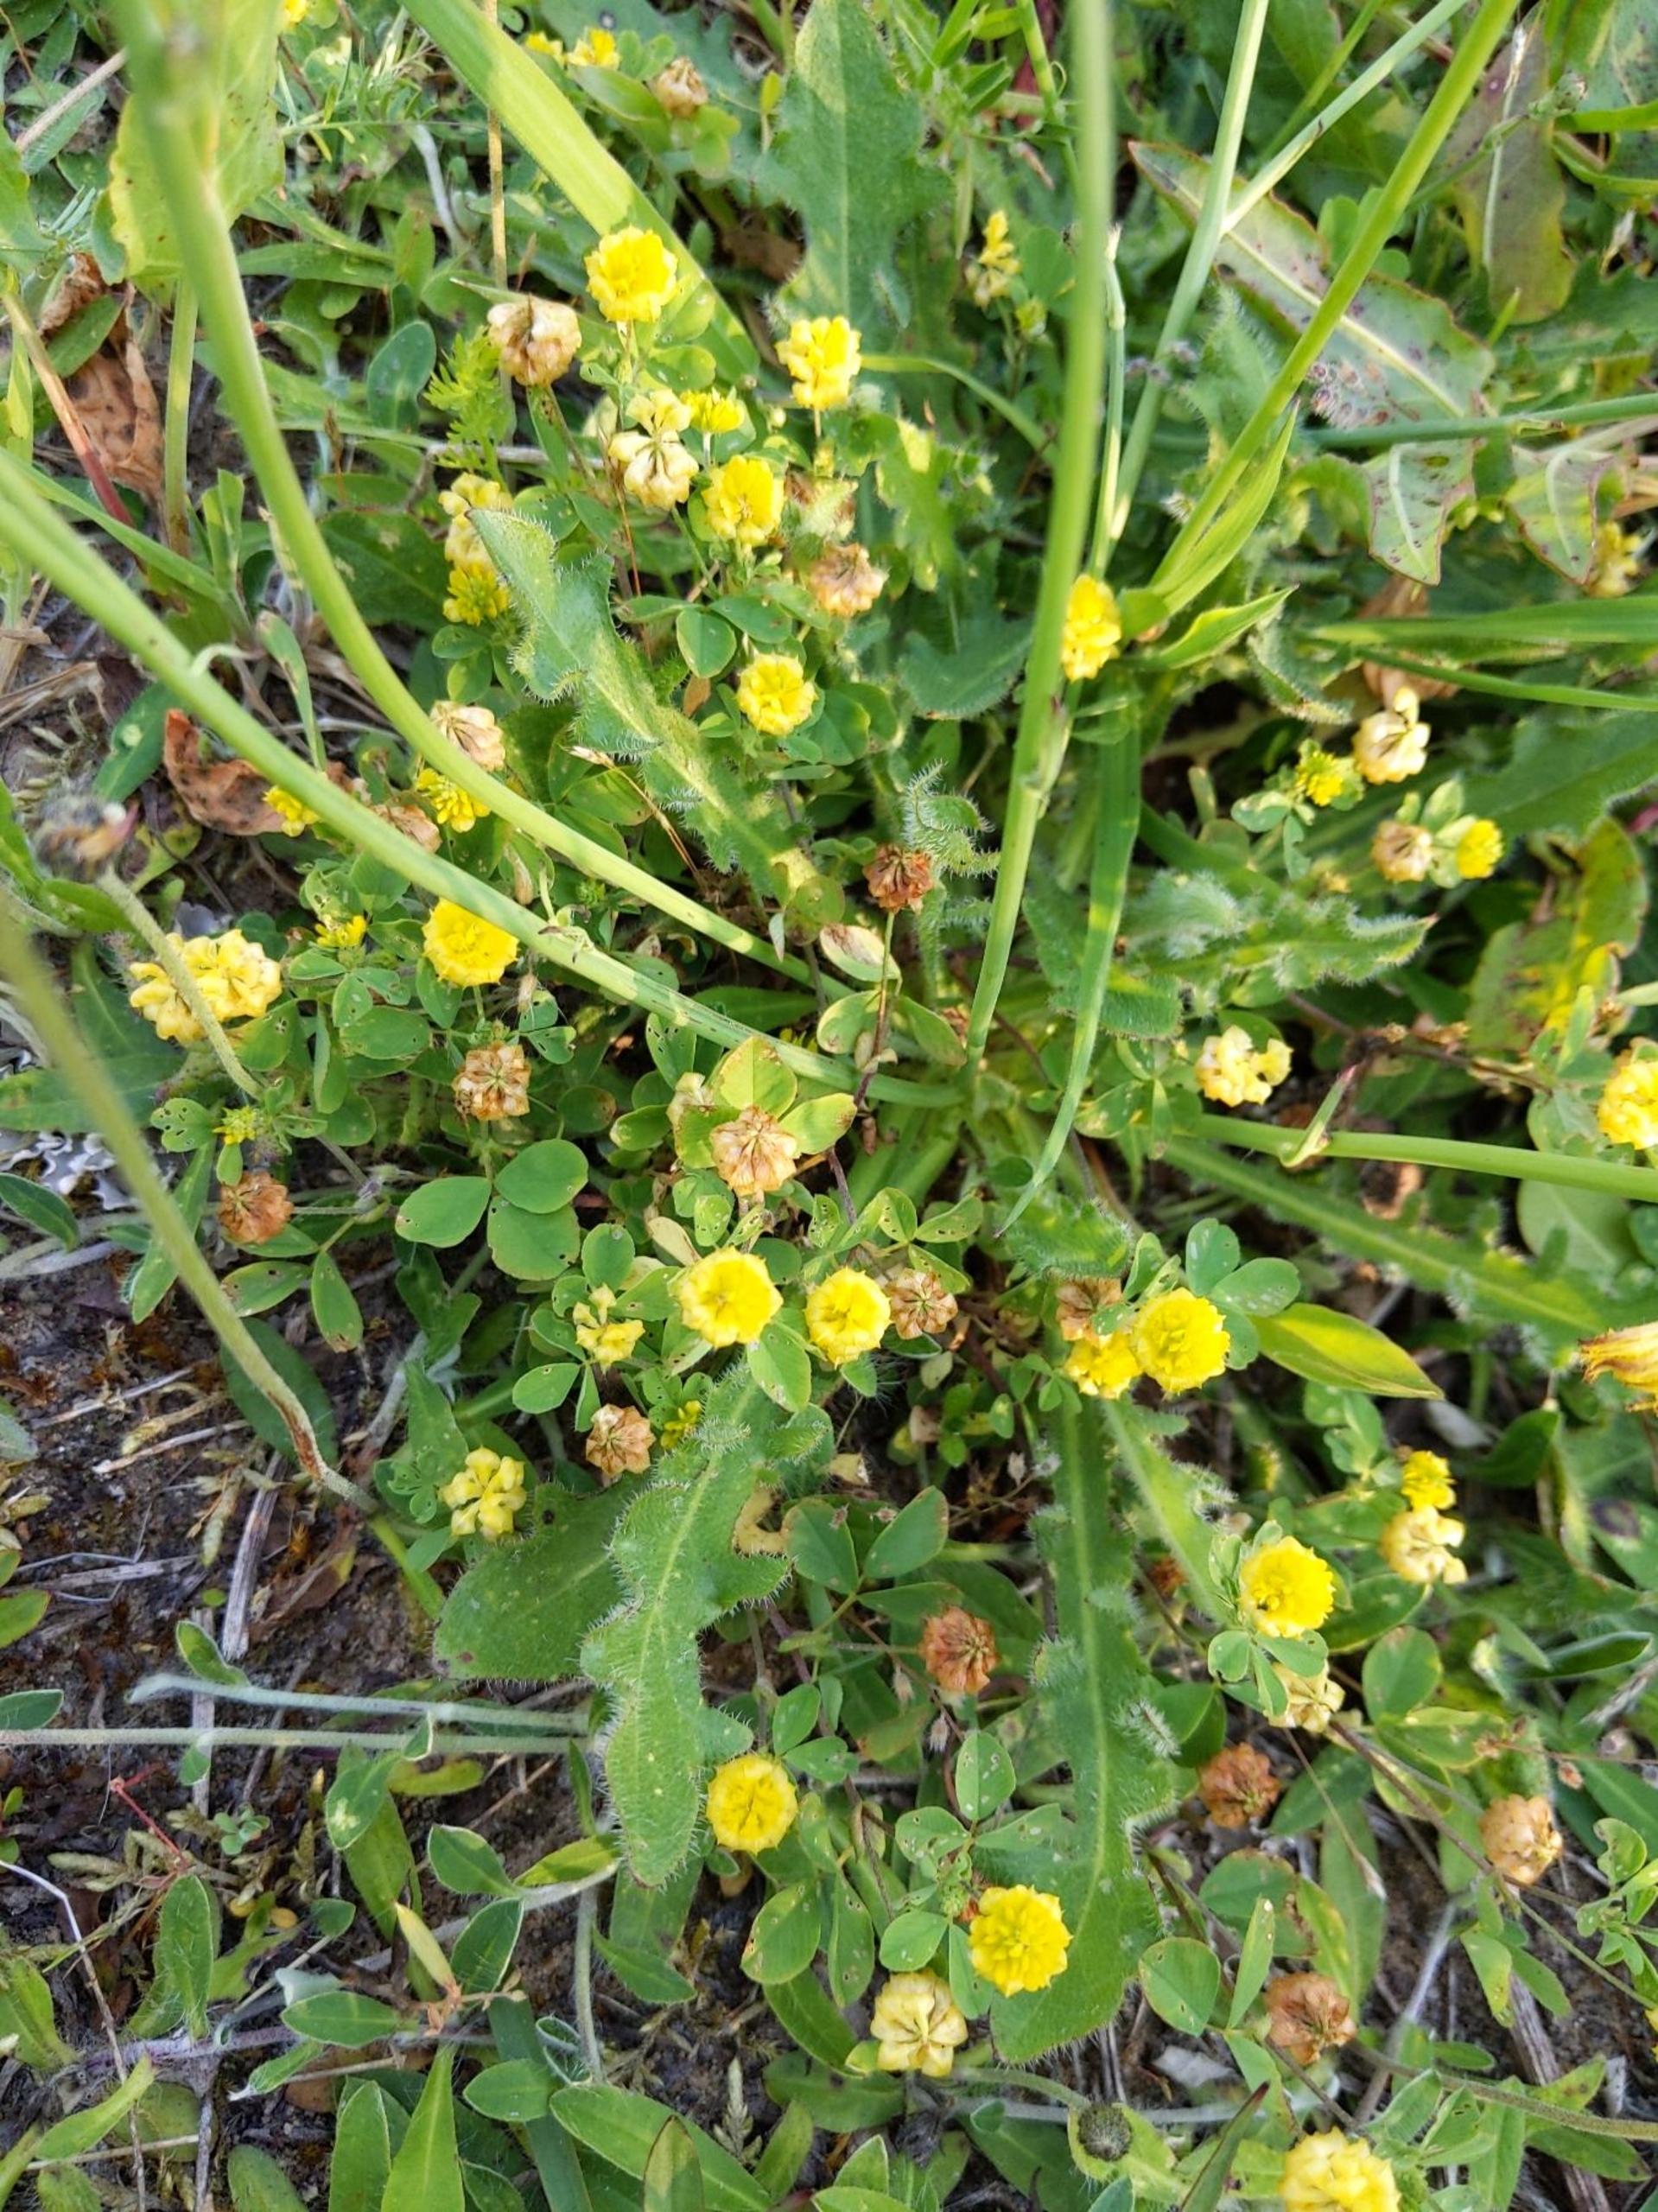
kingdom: Plantae
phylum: Tracheophyta
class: Magnoliopsida
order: Fabales
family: Fabaceae
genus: Trifolium
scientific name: Trifolium campestre
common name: Gul kløver
